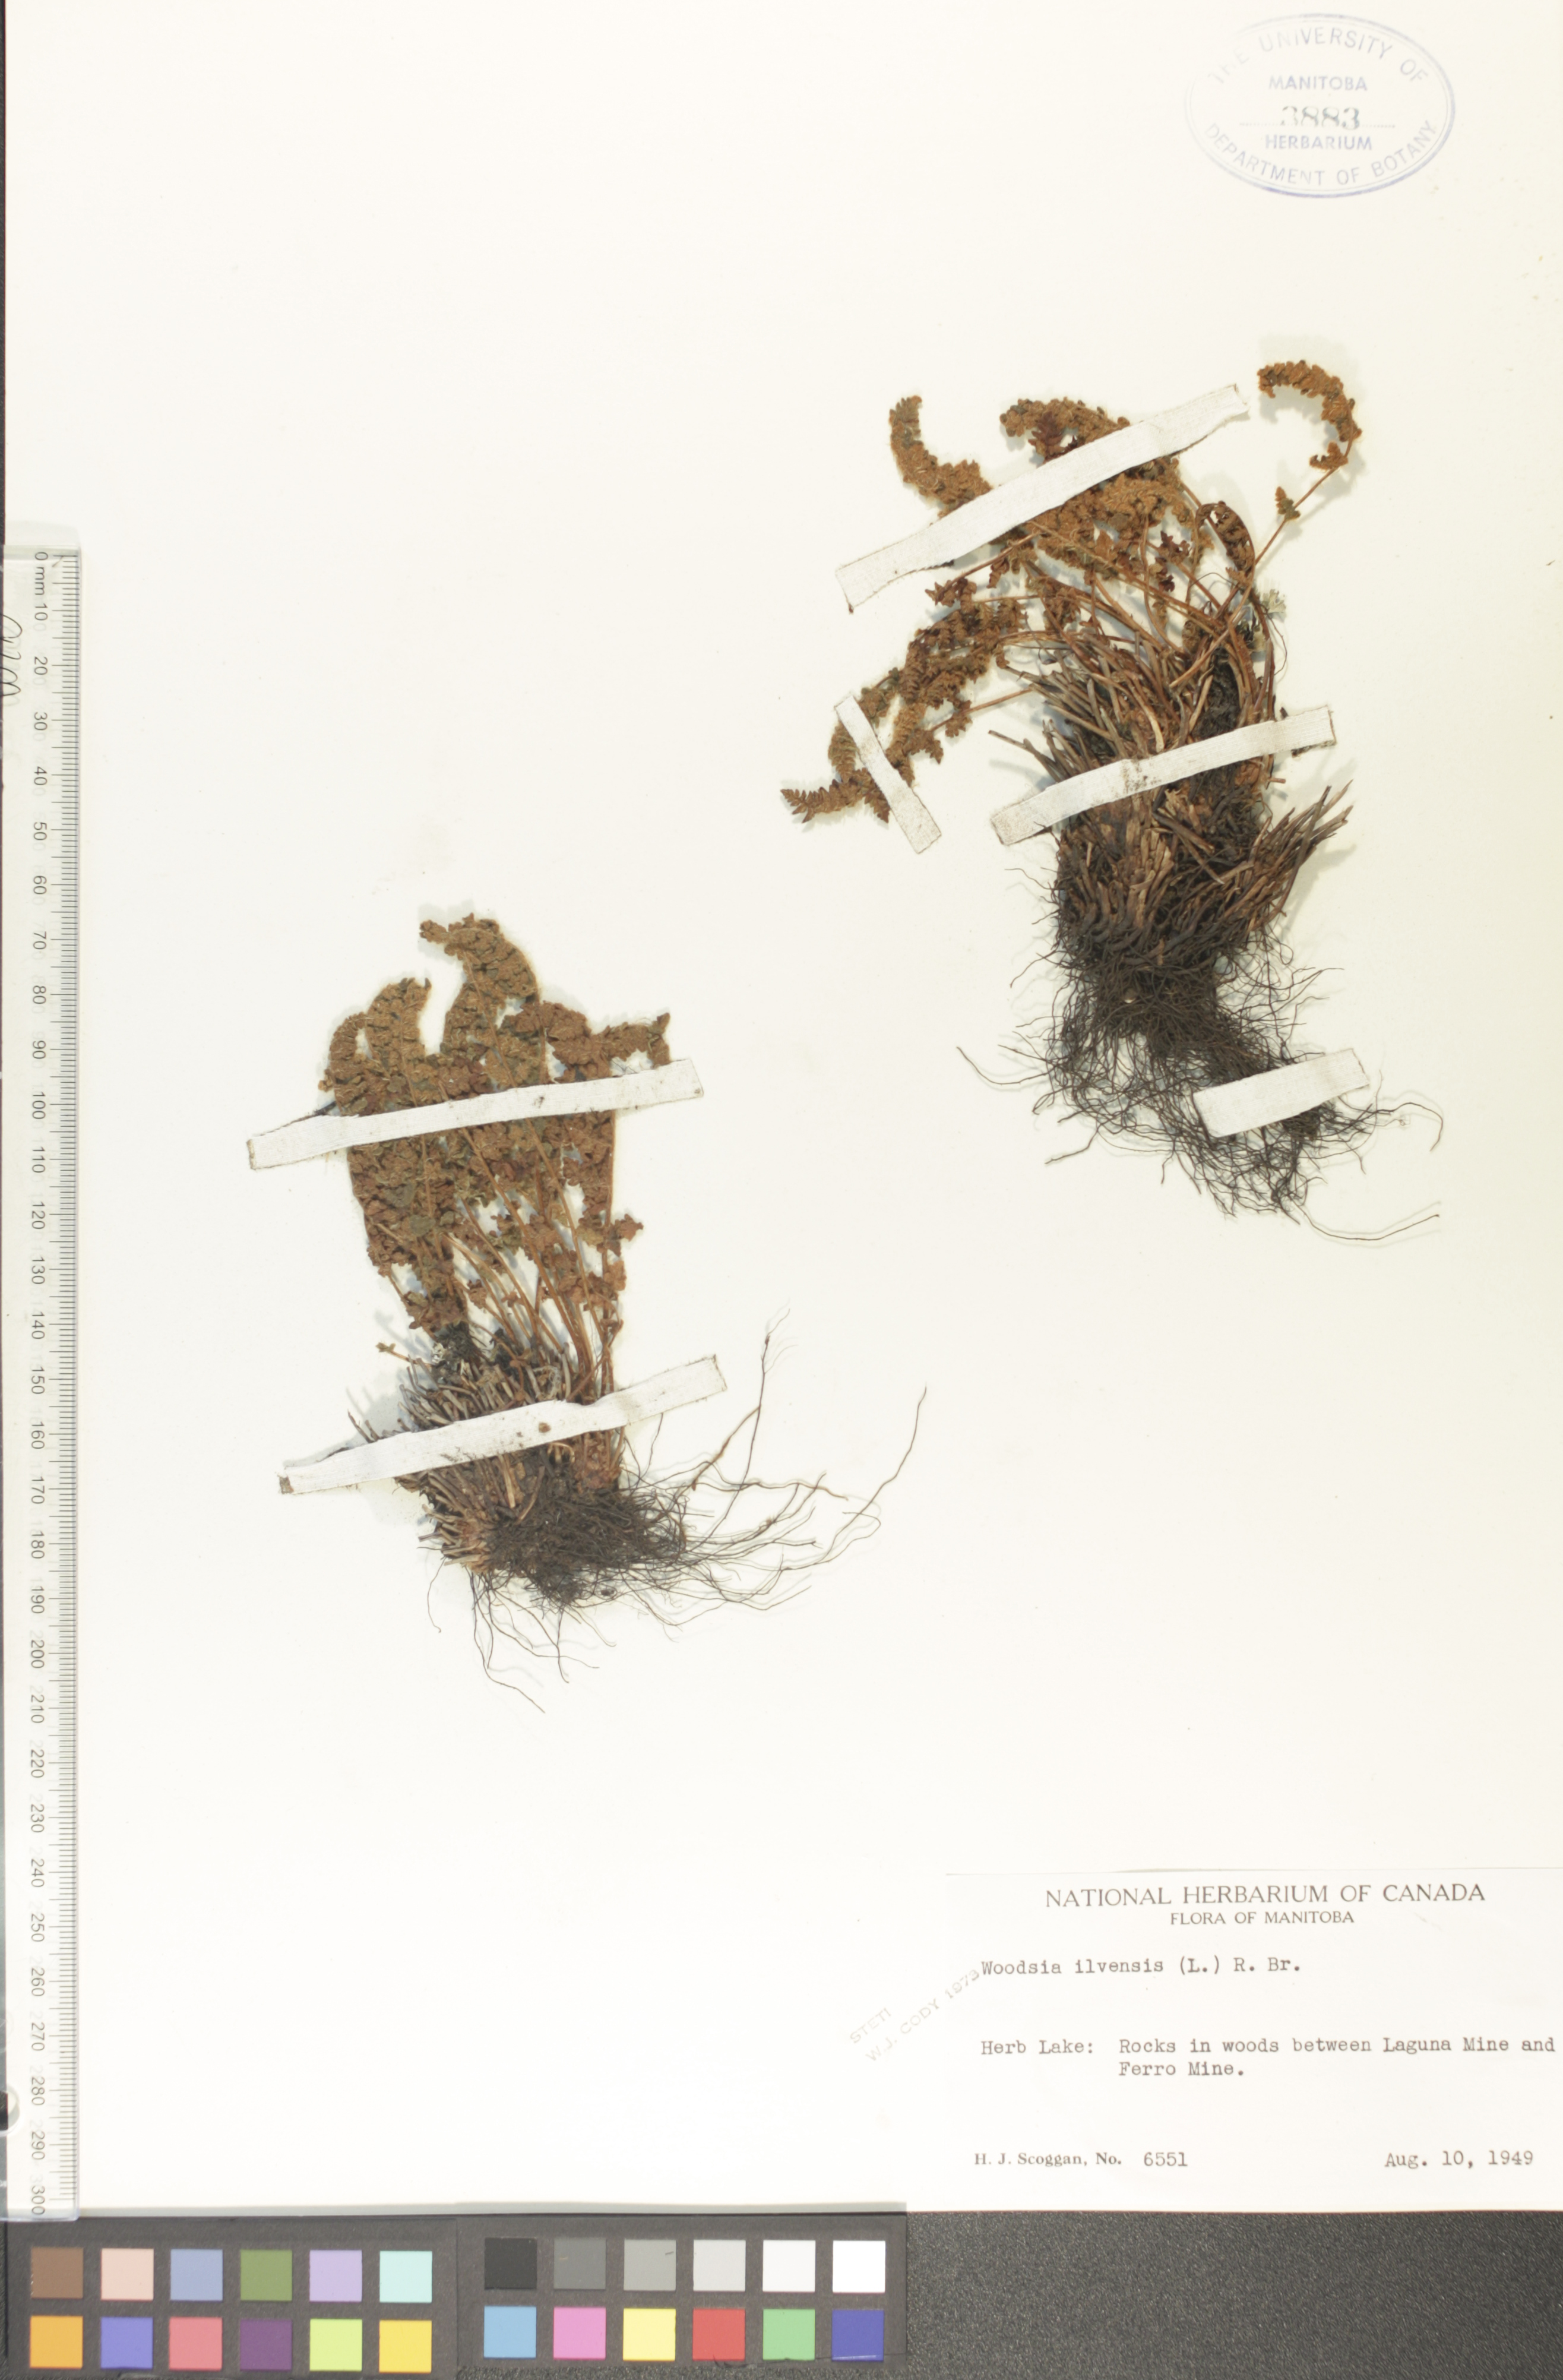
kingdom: Plantae
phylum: Tracheophyta
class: Polypodiopsida
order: Polypodiales
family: Woodsiaceae
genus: Woodsia
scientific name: Woodsia ilvensis
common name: Fragrant woodsia
